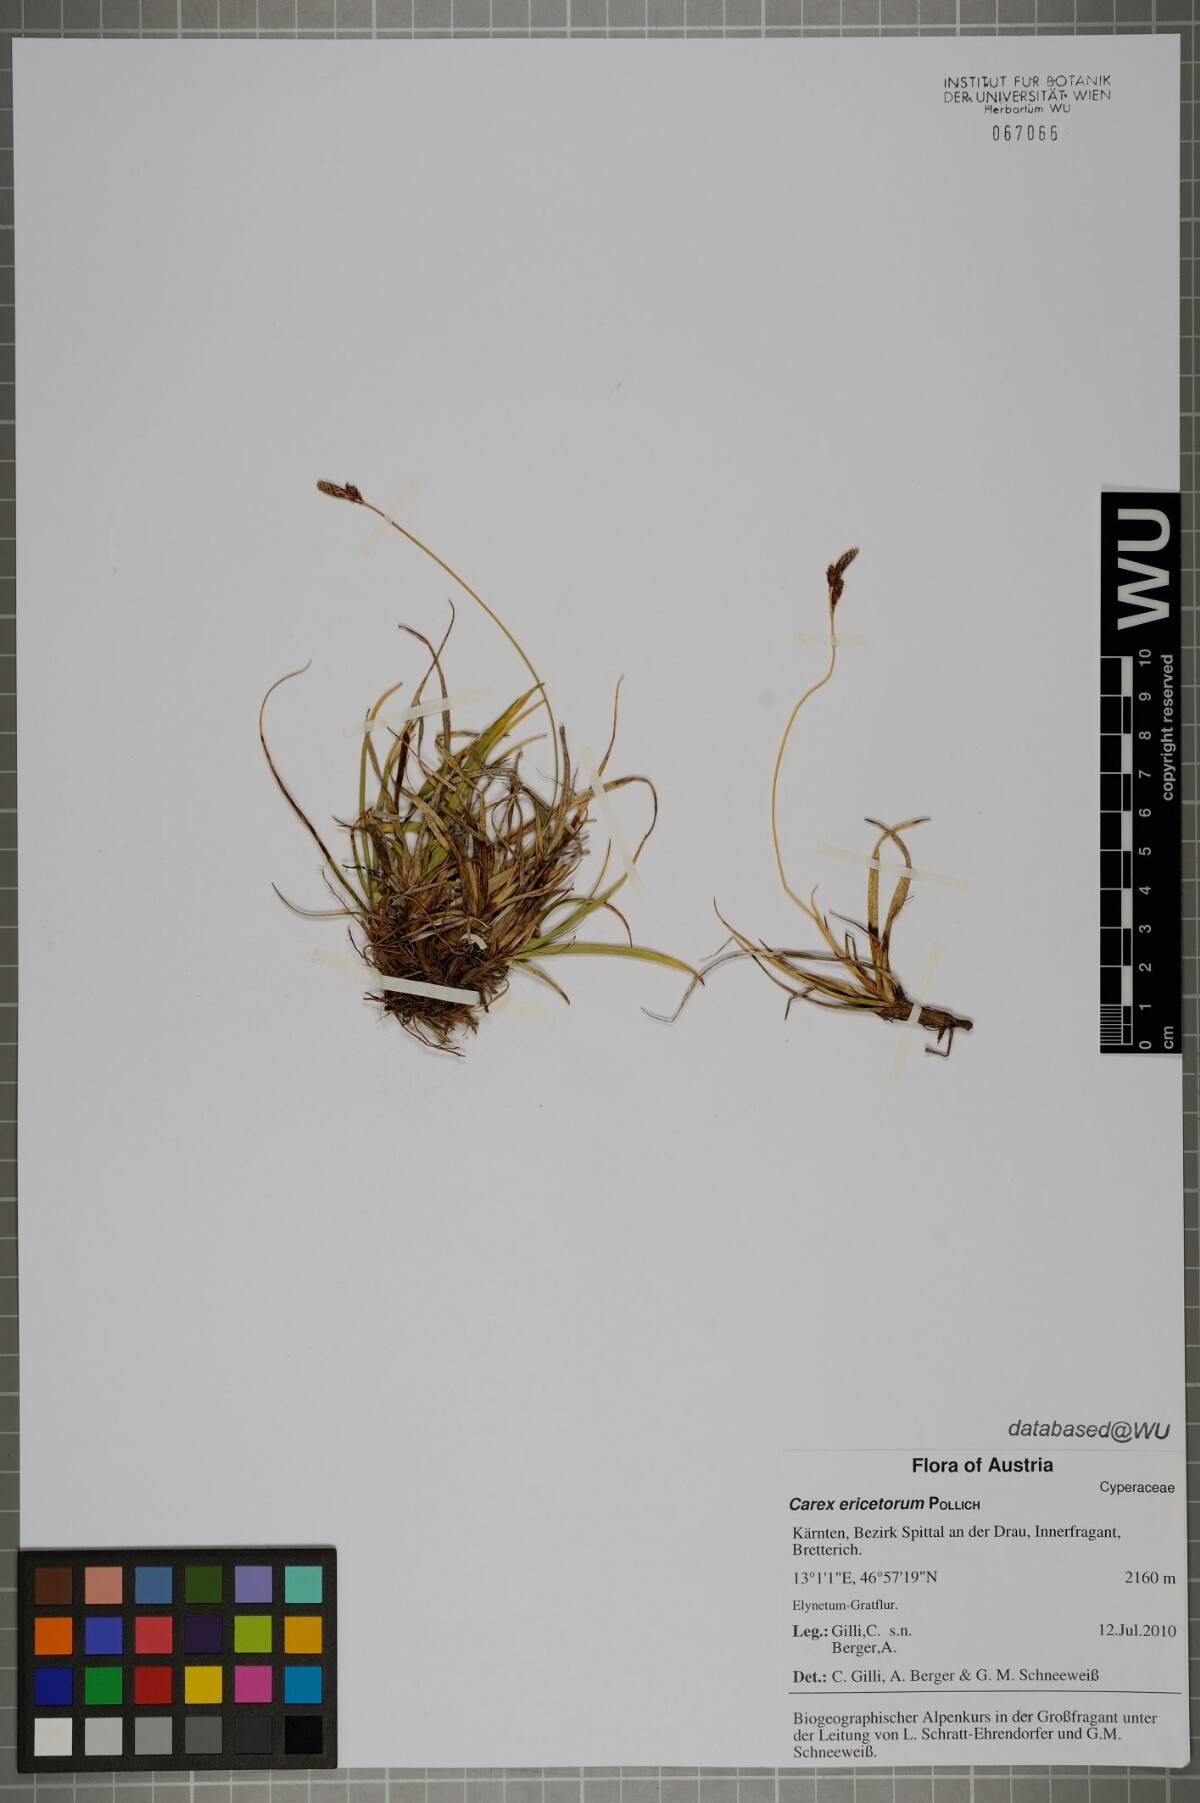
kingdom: Plantae
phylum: Tracheophyta
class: Liliopsida
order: Poales
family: Cyperaceae
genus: Carex
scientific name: Carex ericetorum
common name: Rare spring-sedge
